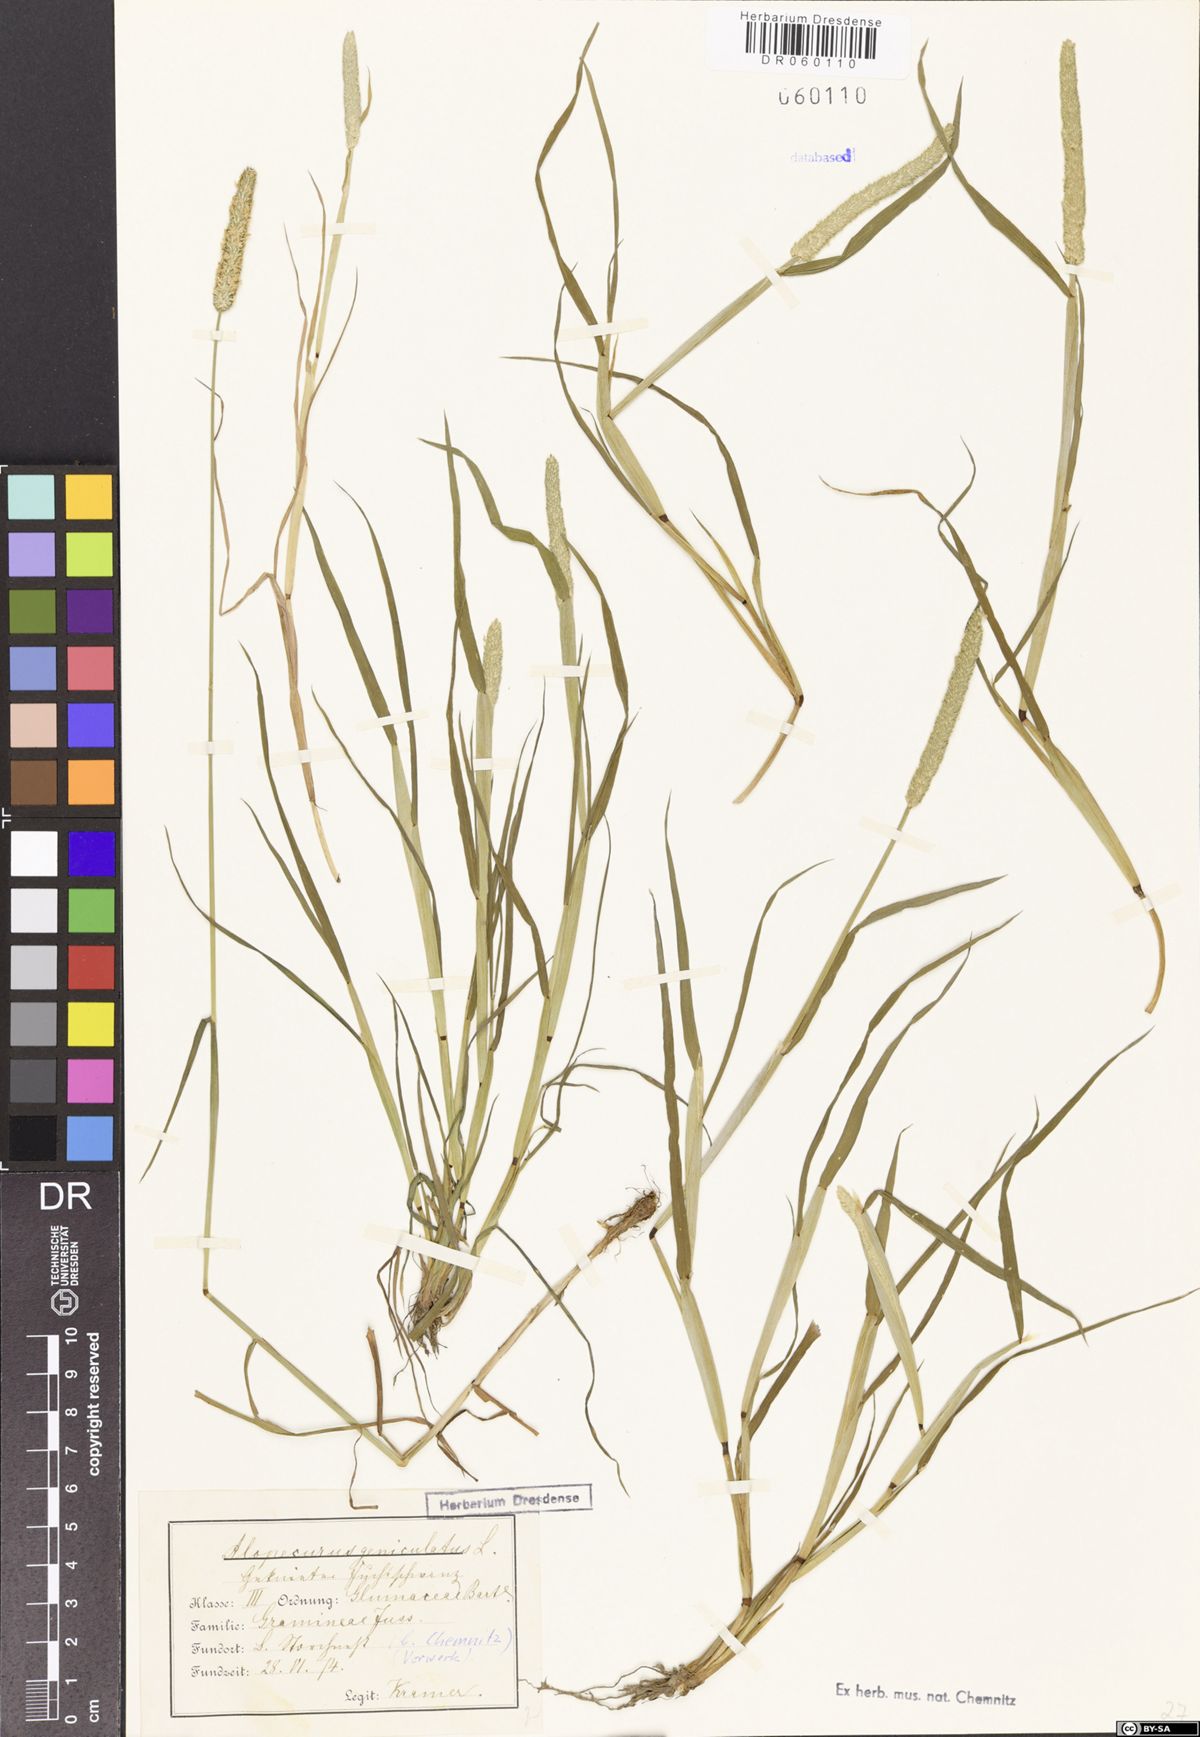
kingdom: Plantae
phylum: Tracheophyta
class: Liliopsida
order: Poales
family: Poaceae
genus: Alopecurus
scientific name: Alopecurus geniculatus
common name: Water foxtail
